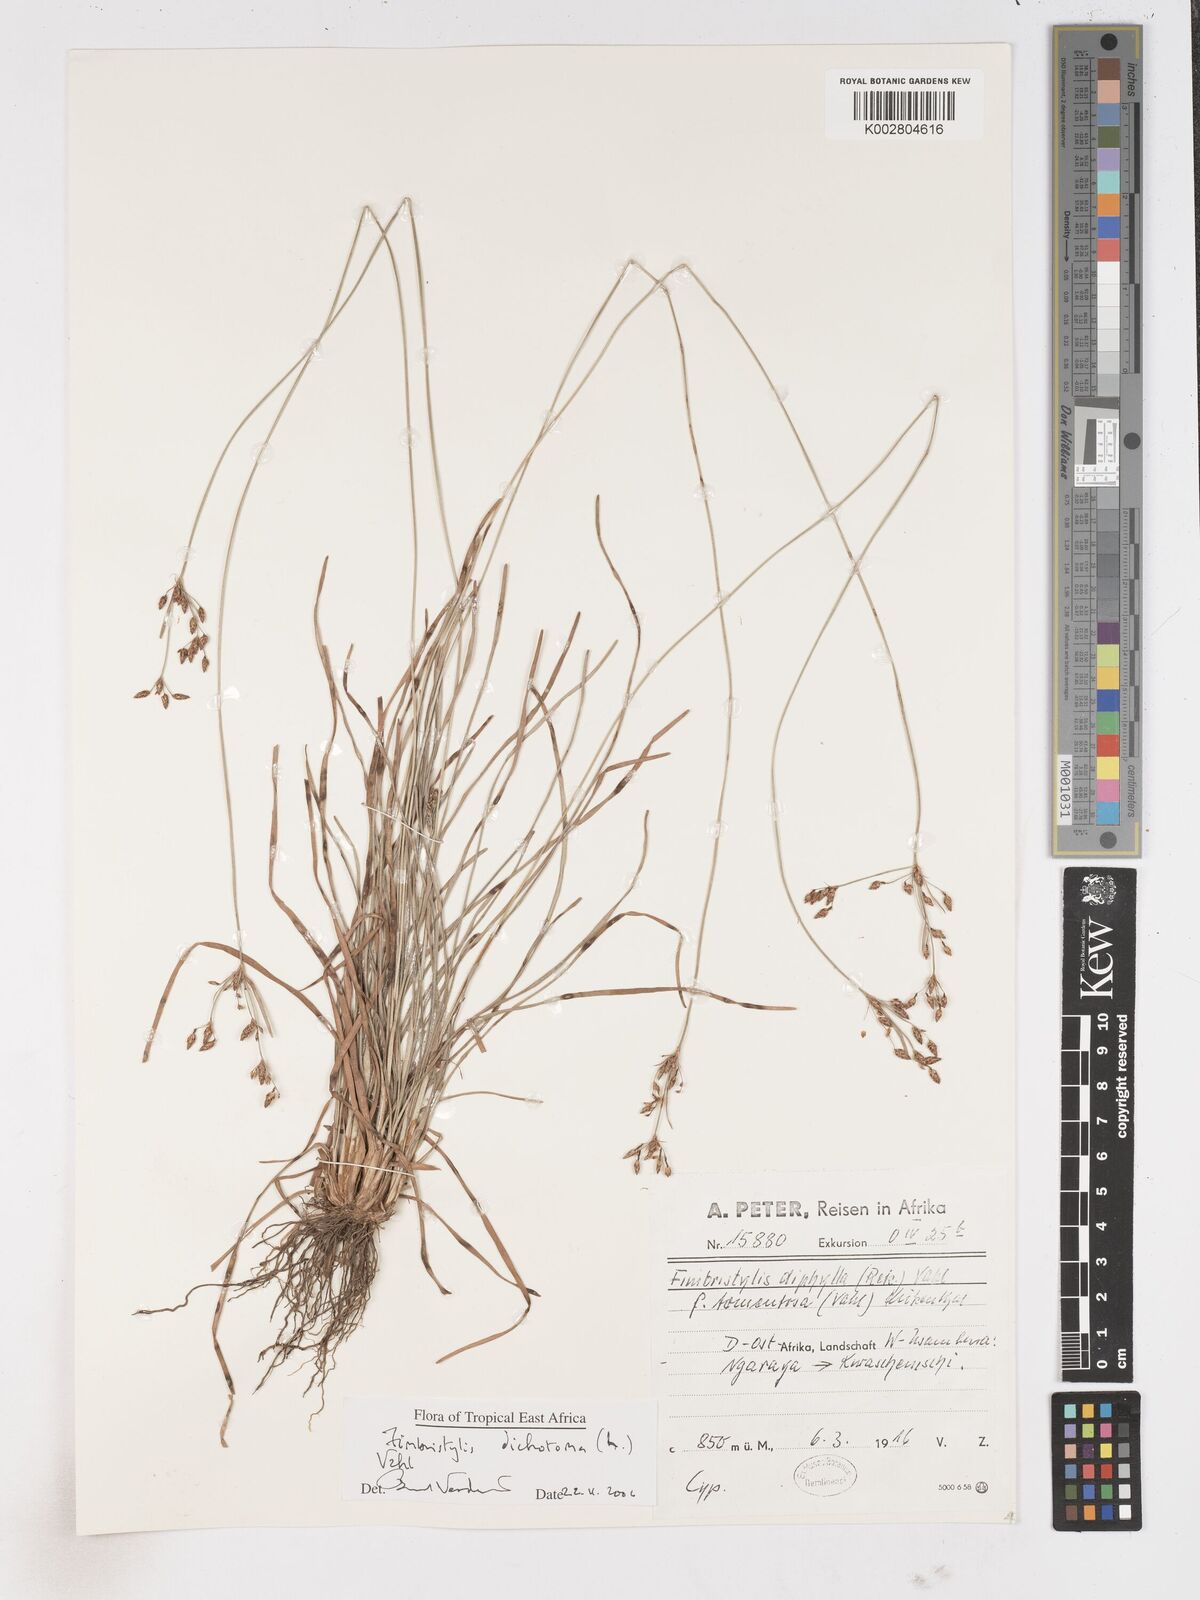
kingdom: Plantae
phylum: Tracheophyta
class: Liliopsida
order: Poales
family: Cyperaceae
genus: Fimbristylis
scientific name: Fimbristylis dichotoma
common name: Forked fimbry
